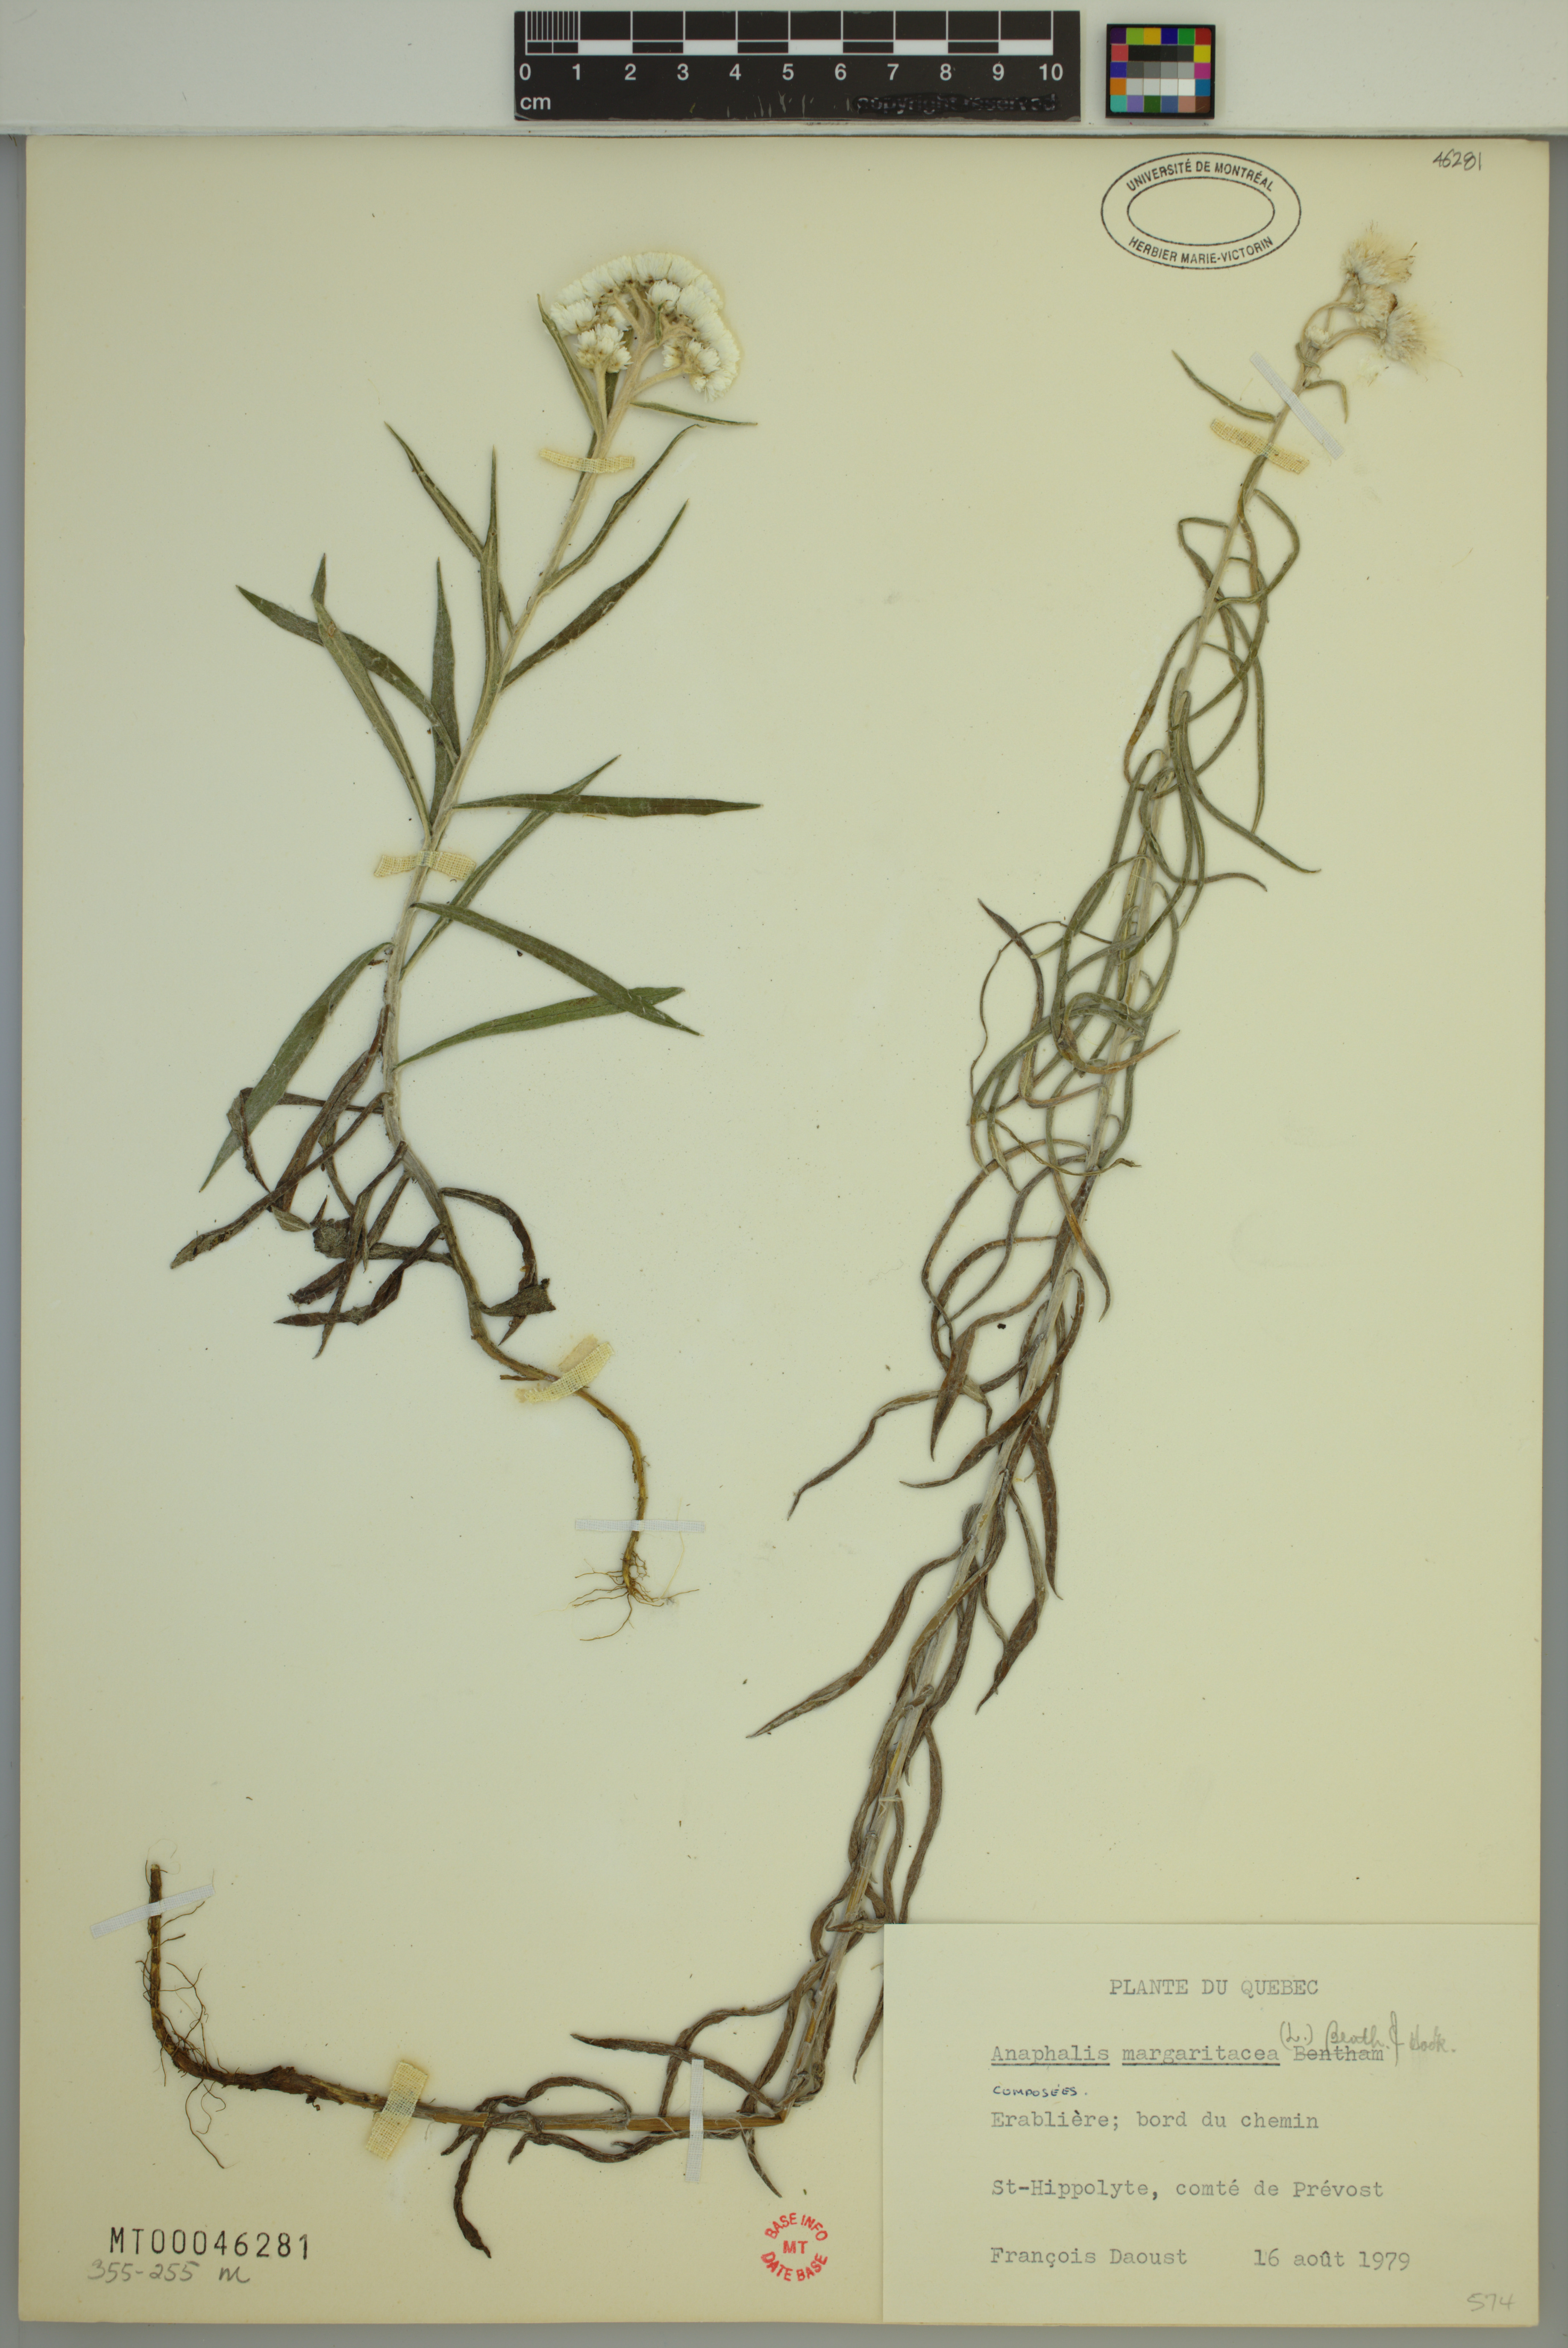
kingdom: Plantae
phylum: Tracheophyta
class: Magnoliopsida
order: Asterales
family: Asteraceae
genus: Anaphalis
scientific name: Anaphalis margaritacea
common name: Pearly everlasting
